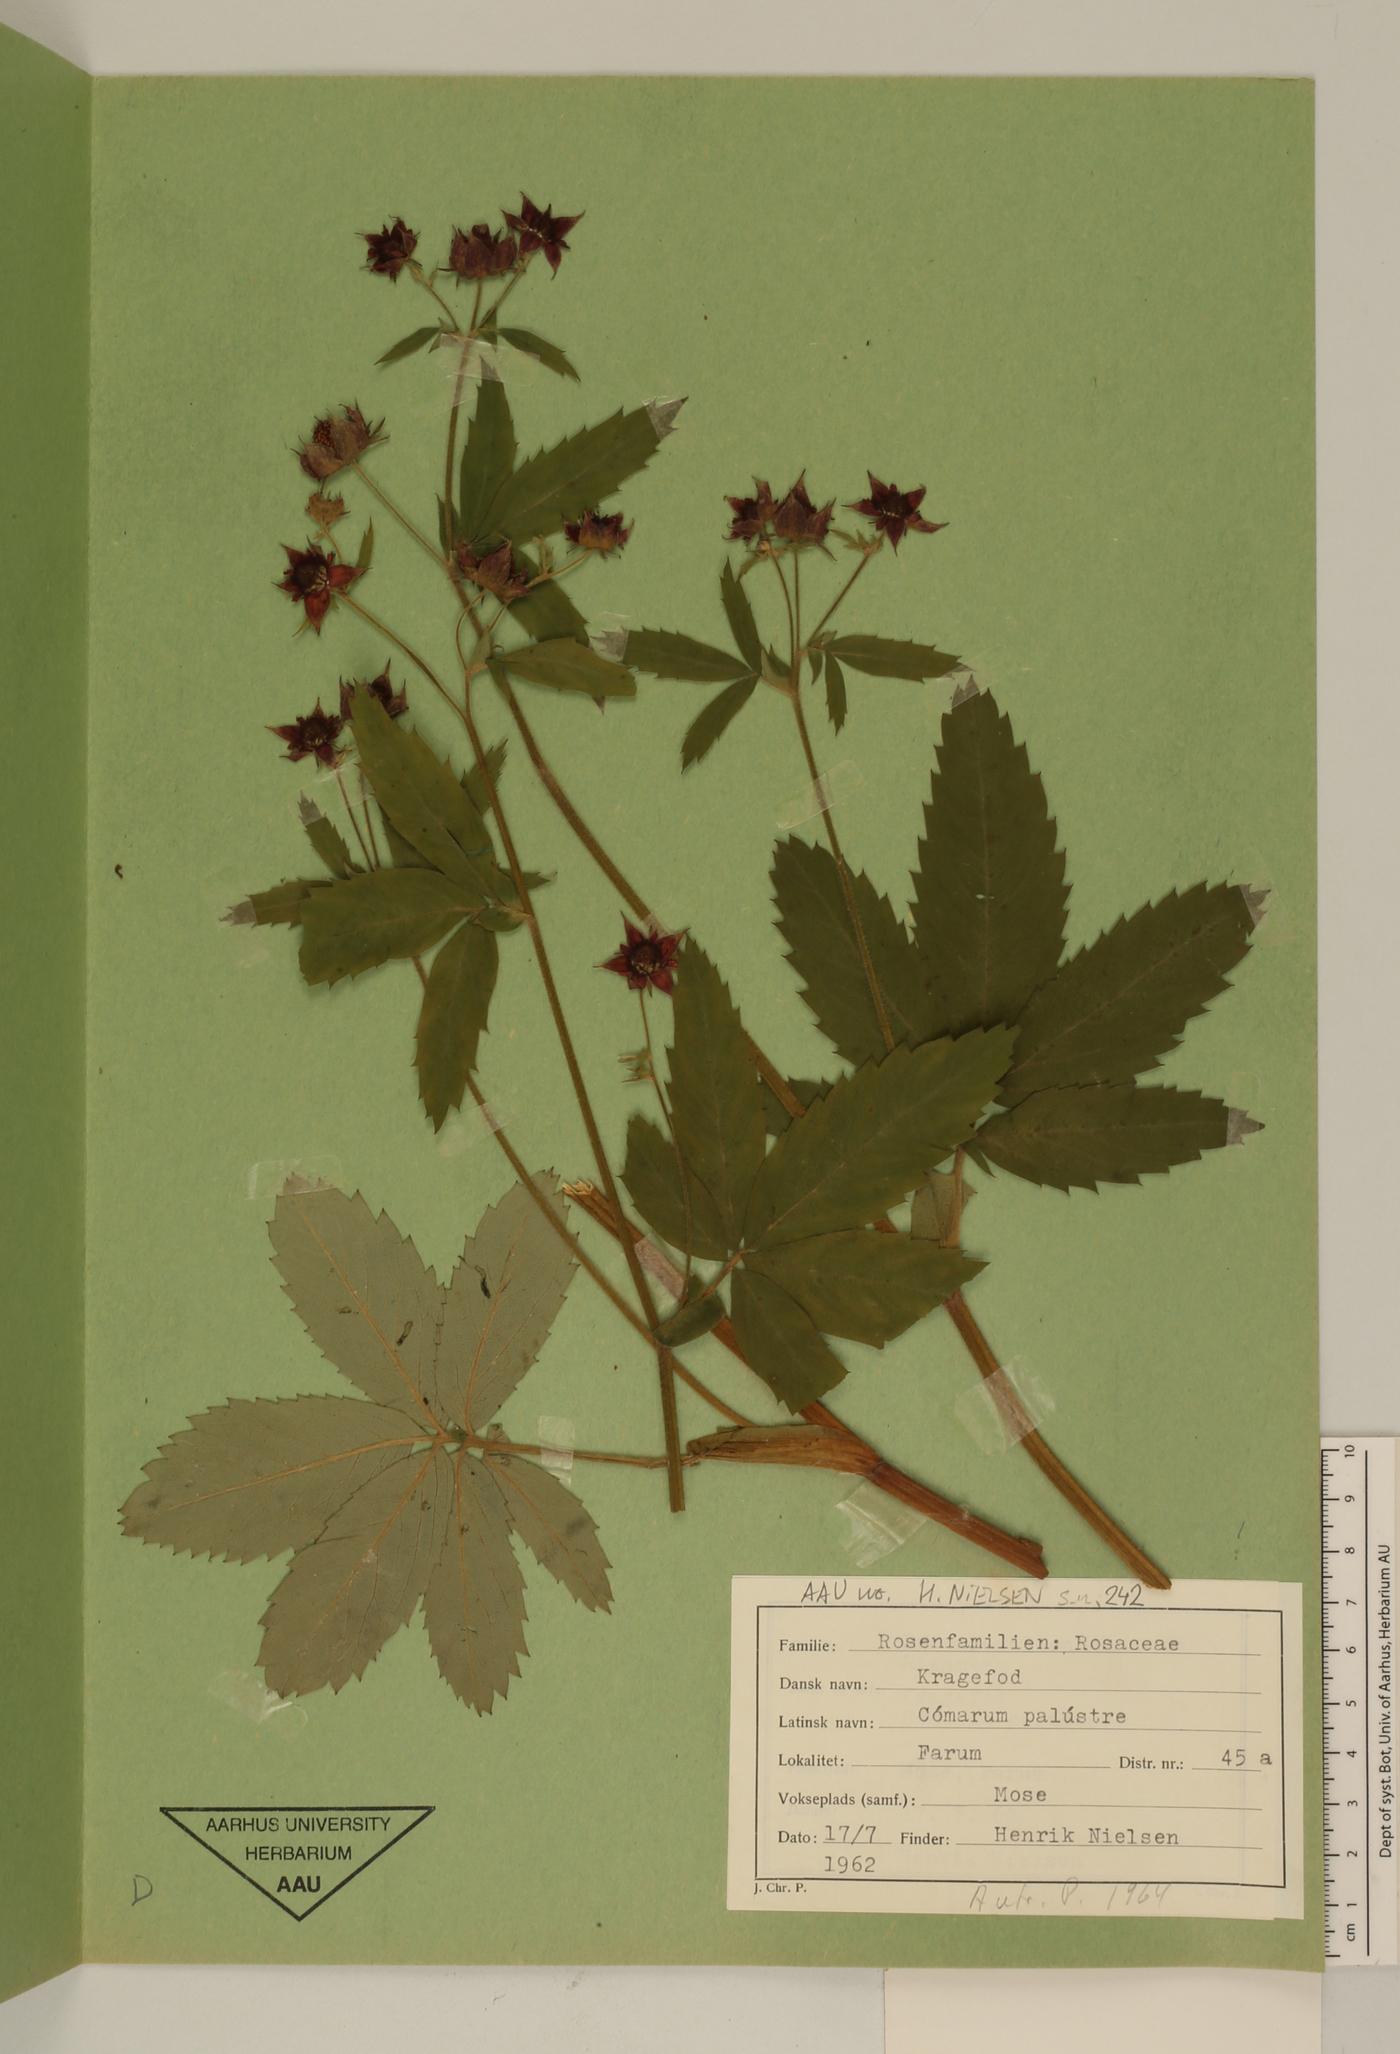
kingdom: Plantae
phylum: Tracheophyta
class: Magnoliopsida
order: Rosales
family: Rosaceae
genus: Comarum
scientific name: Comarum palustre
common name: Marsh cinquefoil
